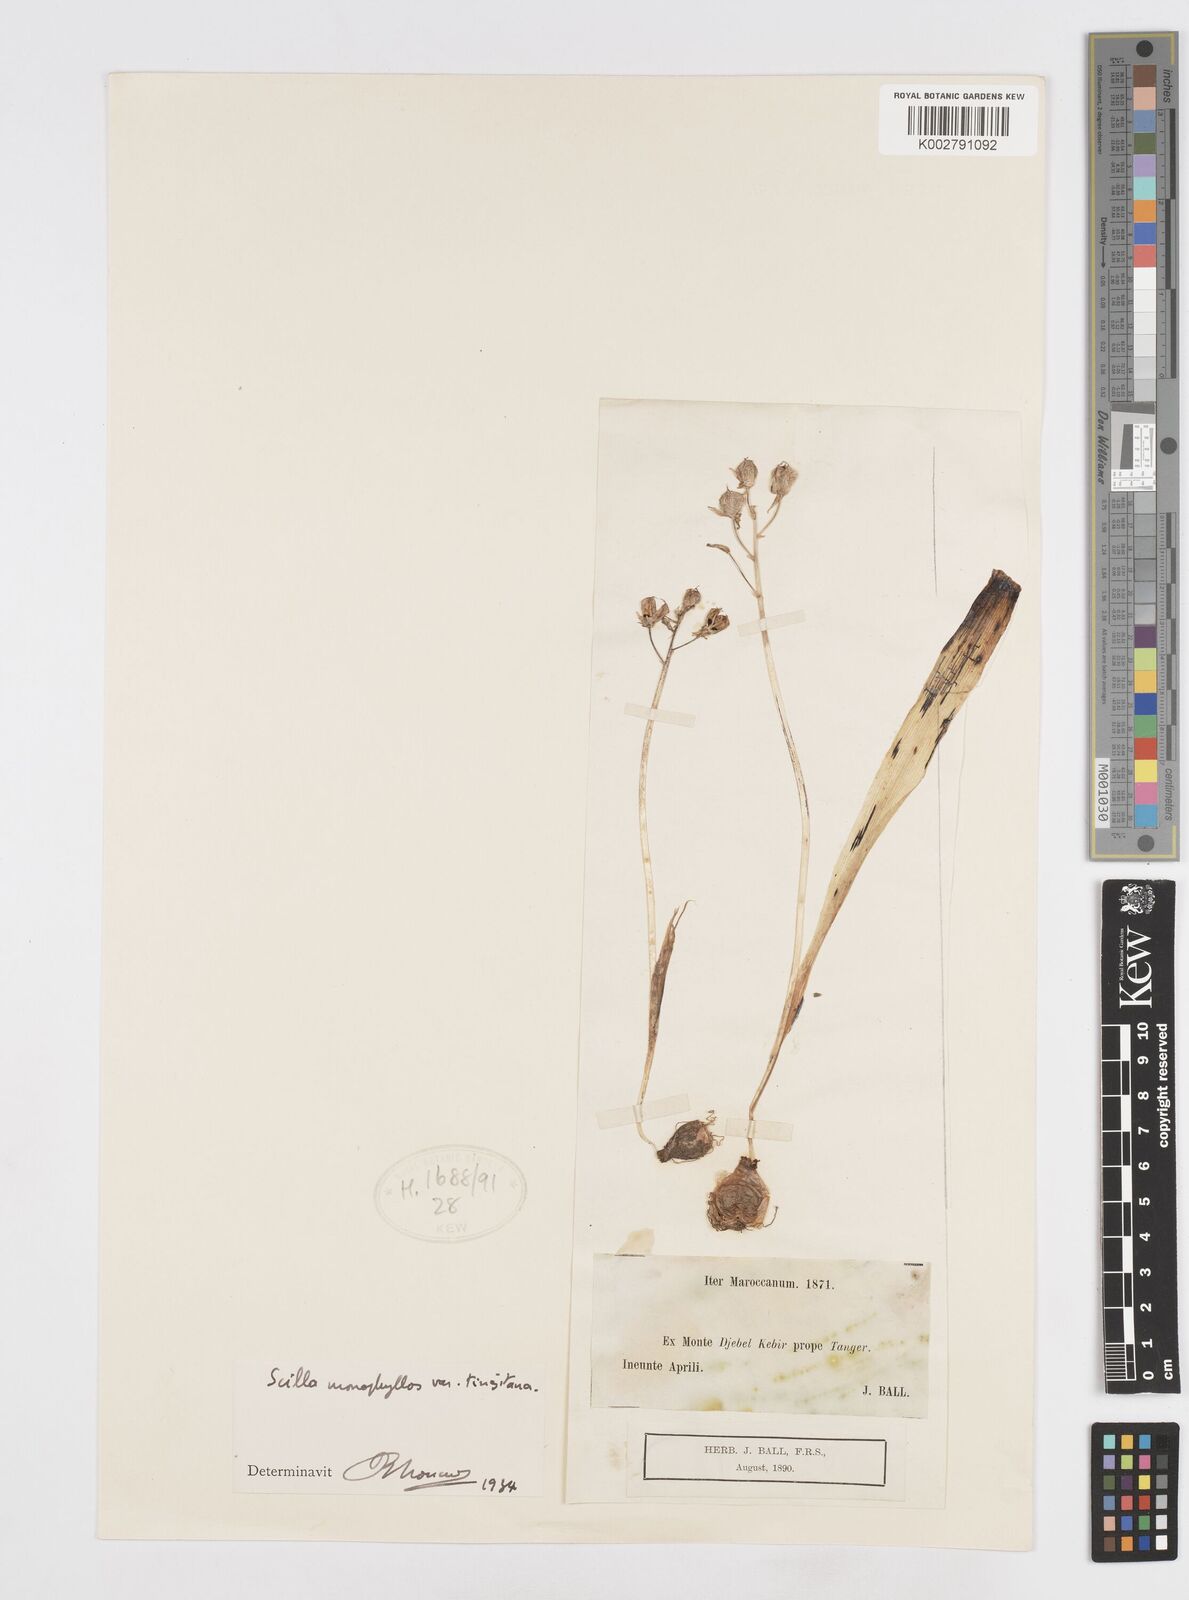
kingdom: Plantae
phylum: Tracheophyta
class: Liliopsida
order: Asparagales
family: Asparagaceae
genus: Scilla
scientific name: Scilla monophyllos
